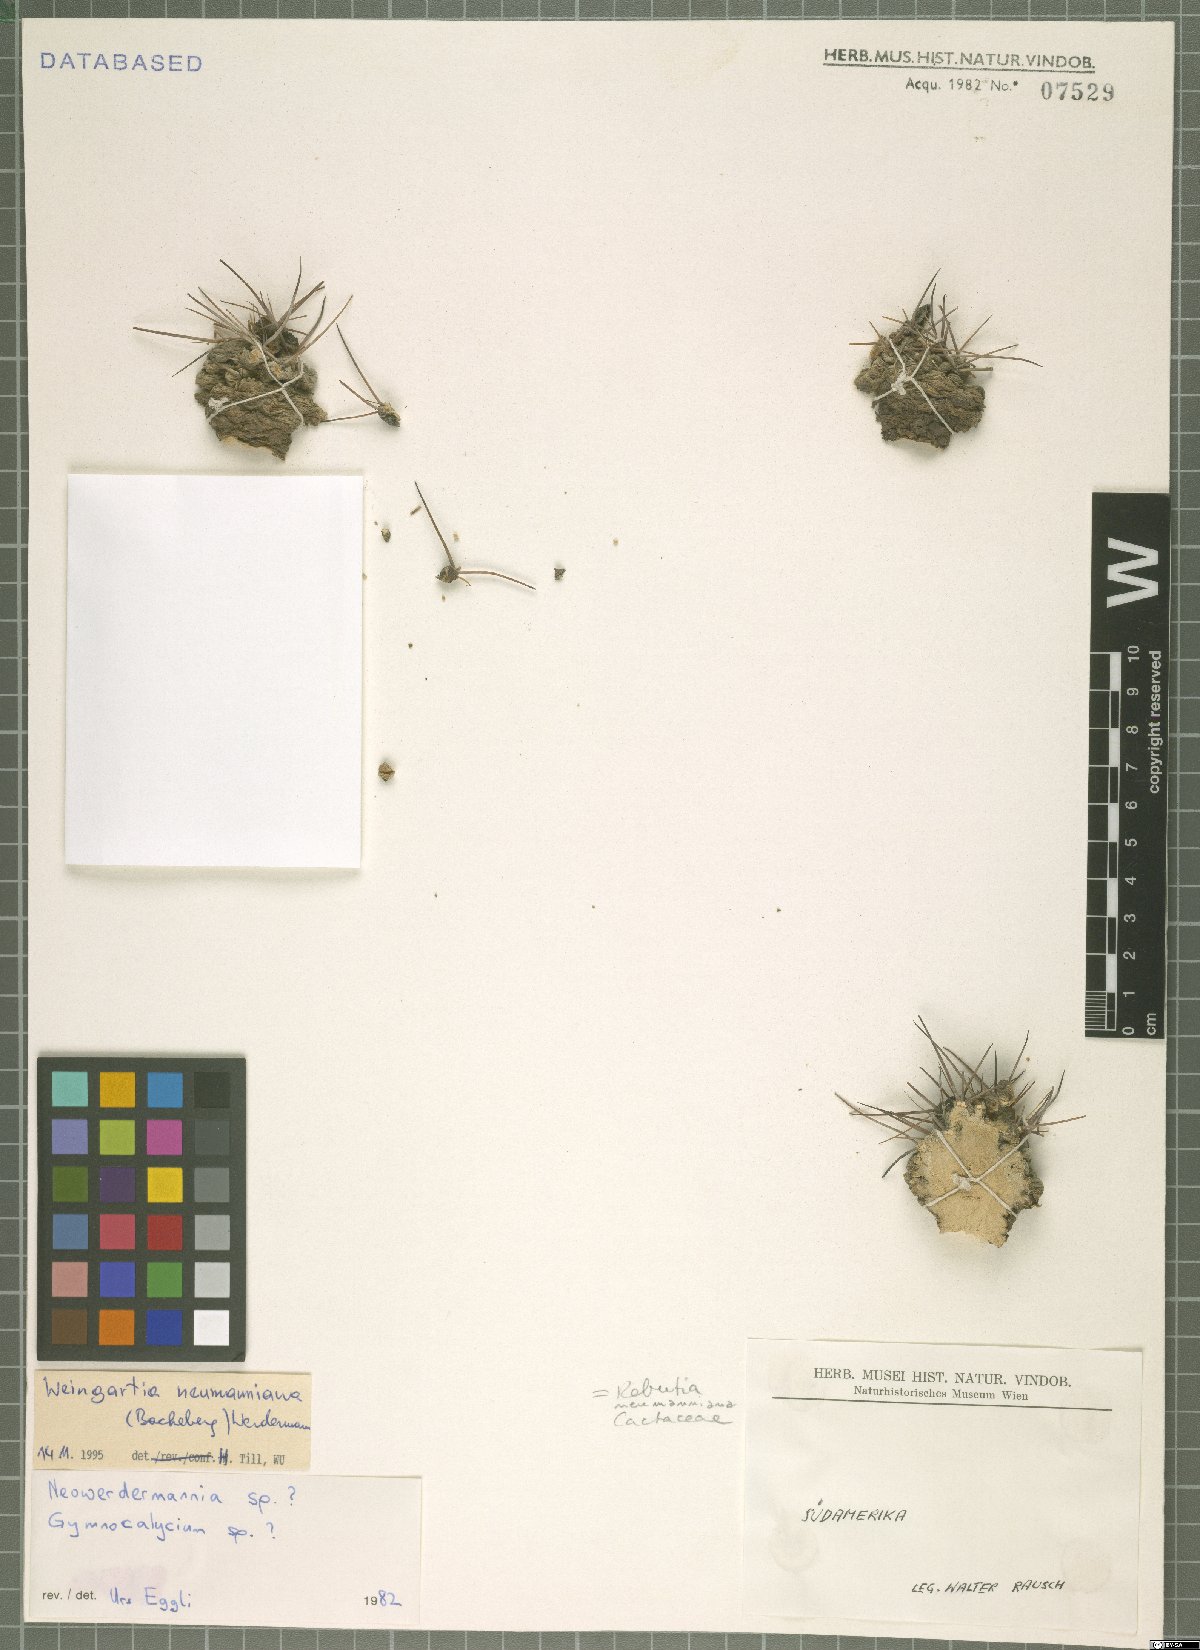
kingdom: Plantae
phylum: Tracheophyta
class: Magnoliopsida
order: Caryophyllales
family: Cactaceae
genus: Weingartia
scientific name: Weingartia neumanniana
